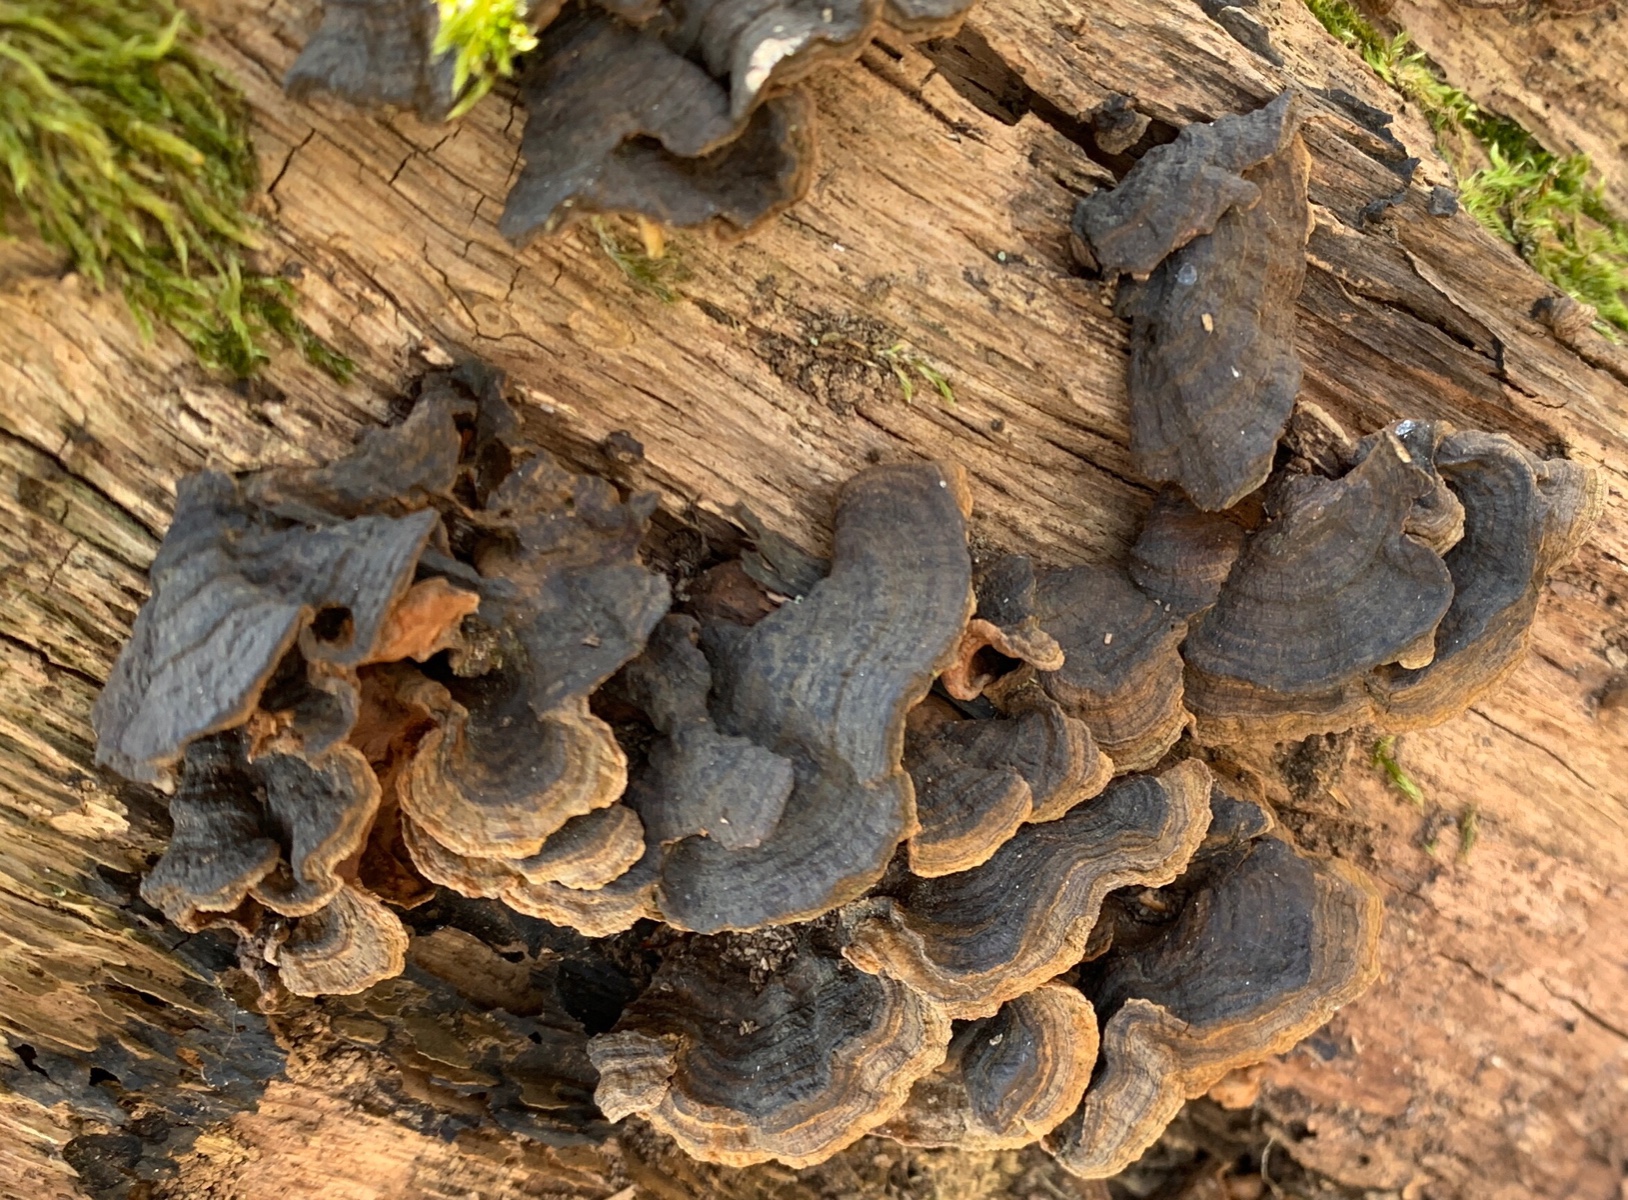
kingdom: Fungi
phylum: Basidiomycota
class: Agaricomycetes
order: Hymenochaetales
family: Hymenochaetaceae
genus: Hymenochaete
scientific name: Hymenochaete rubiginosa
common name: stiv ruslædersvamp
